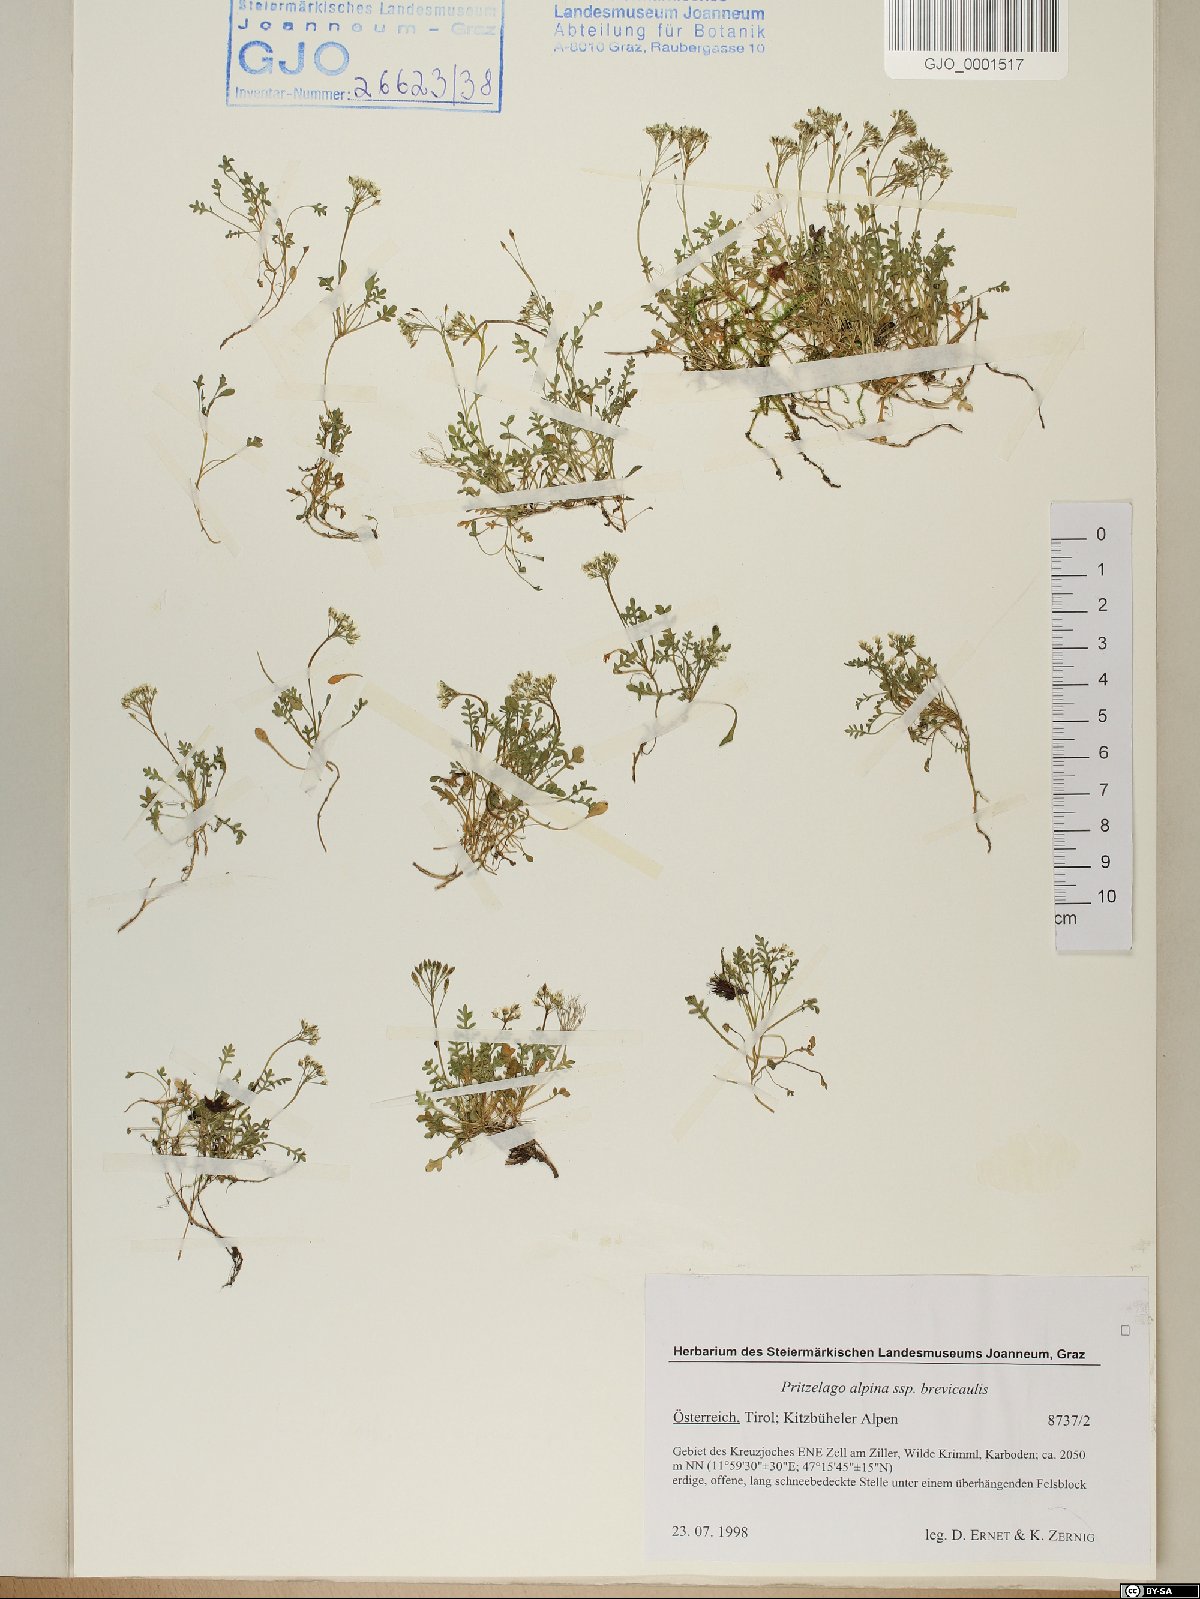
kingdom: Plantae
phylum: Tracheophyta
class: Magnoliopsida
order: Brassicales
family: Brassicaceae
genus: Hornungia
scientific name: Hornungia alpina
